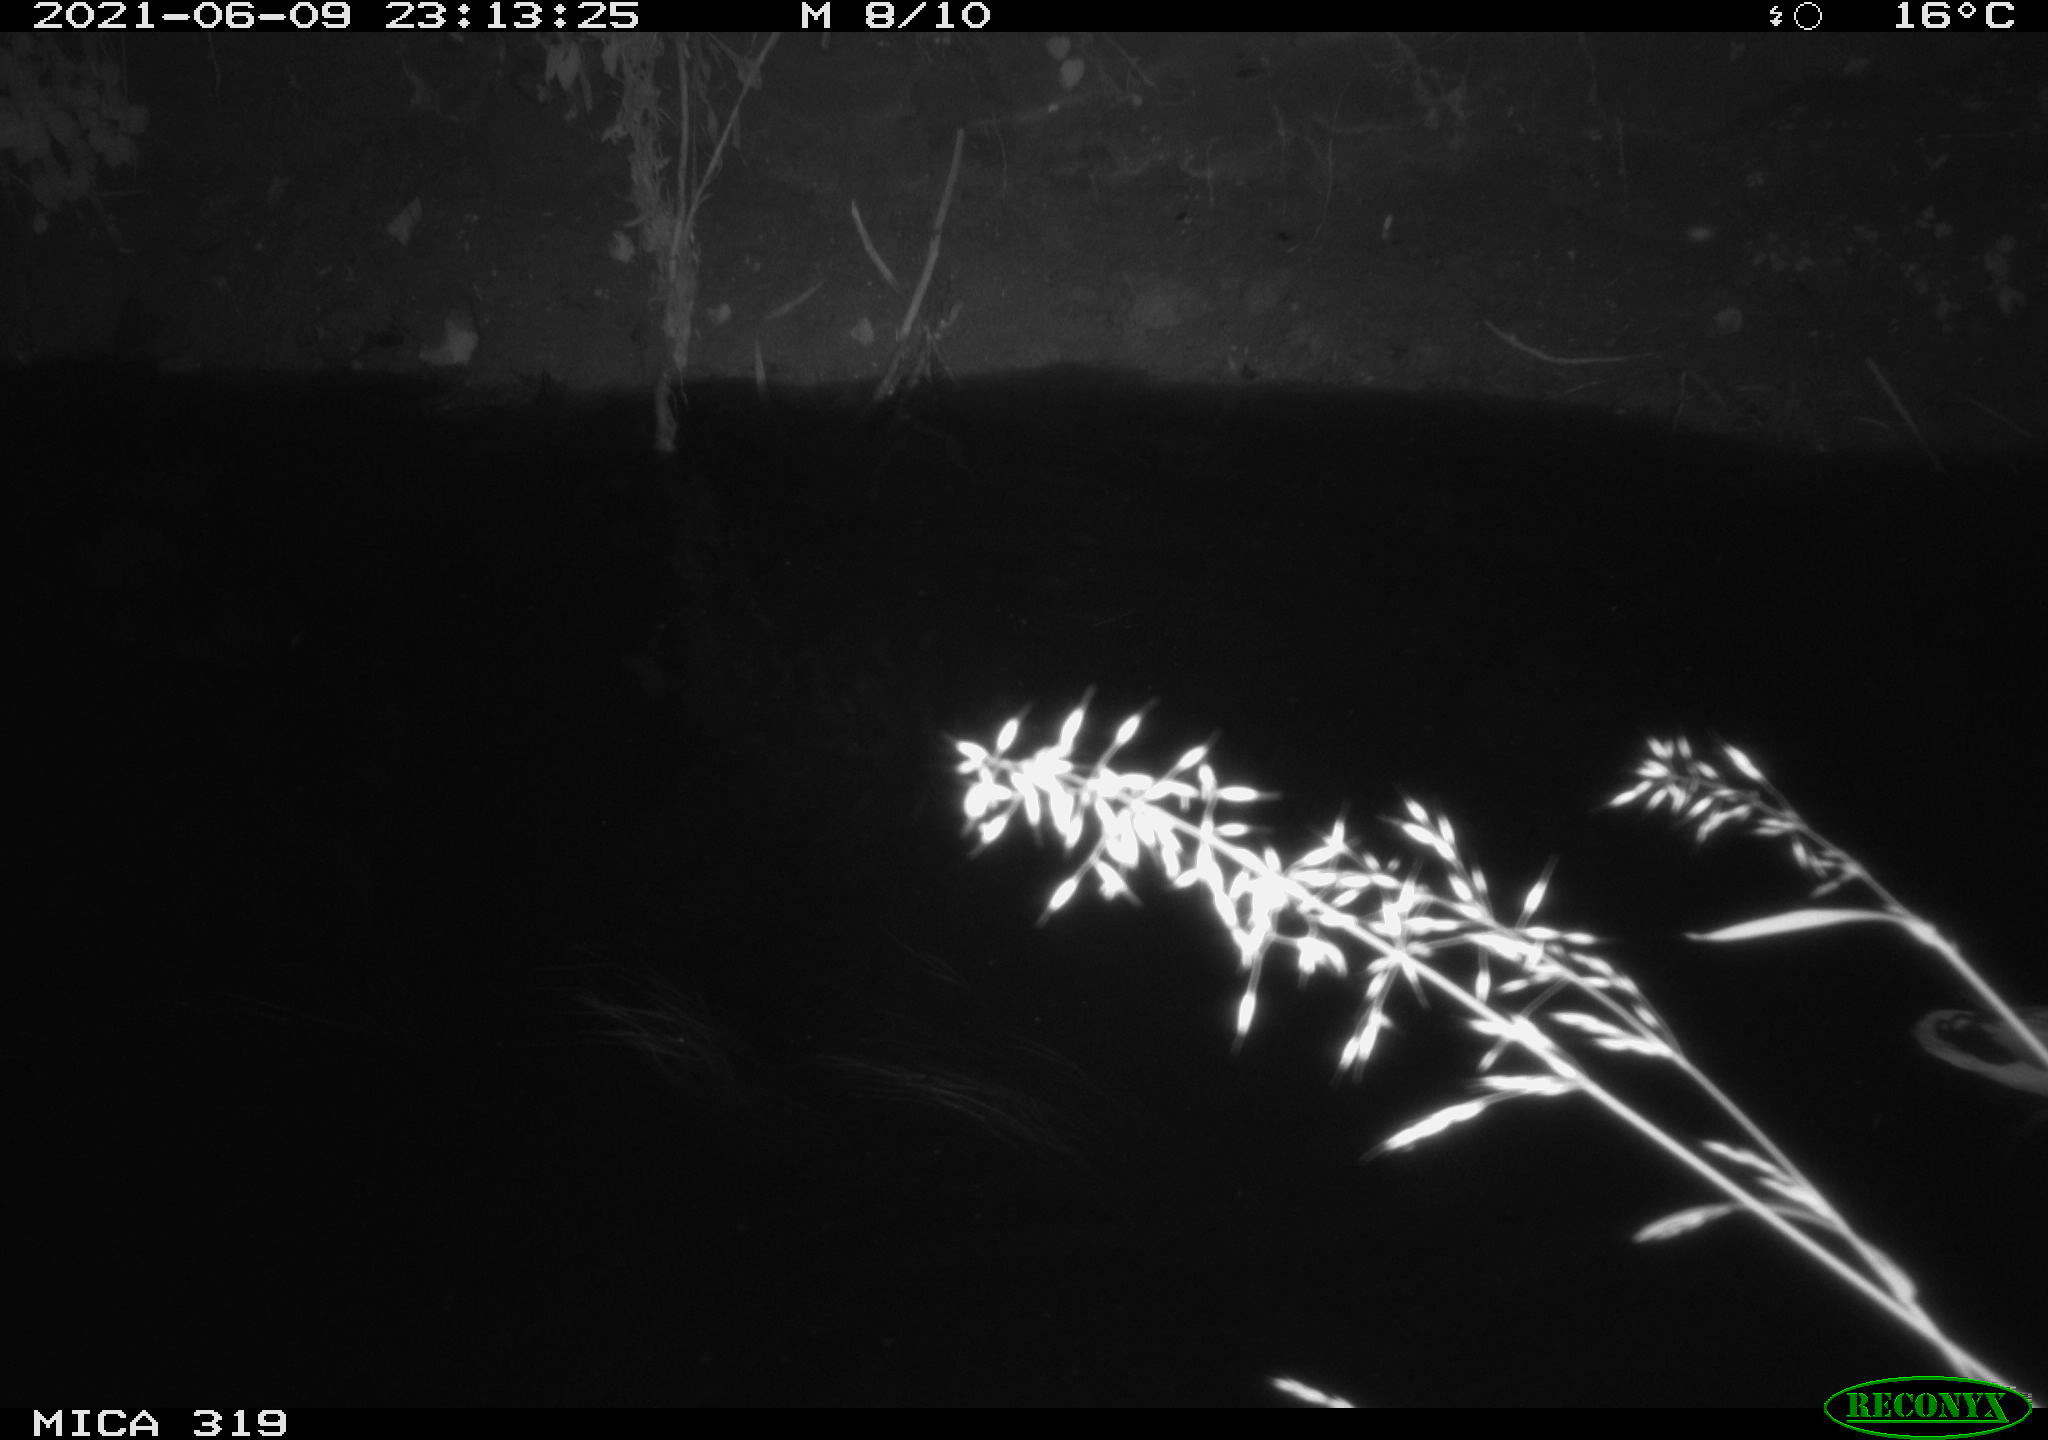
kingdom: Animalia
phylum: Chordata
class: Aves
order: Anseriformes
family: Anatidae
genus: Anas
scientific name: Anas platyrhynchos
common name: Mallard
